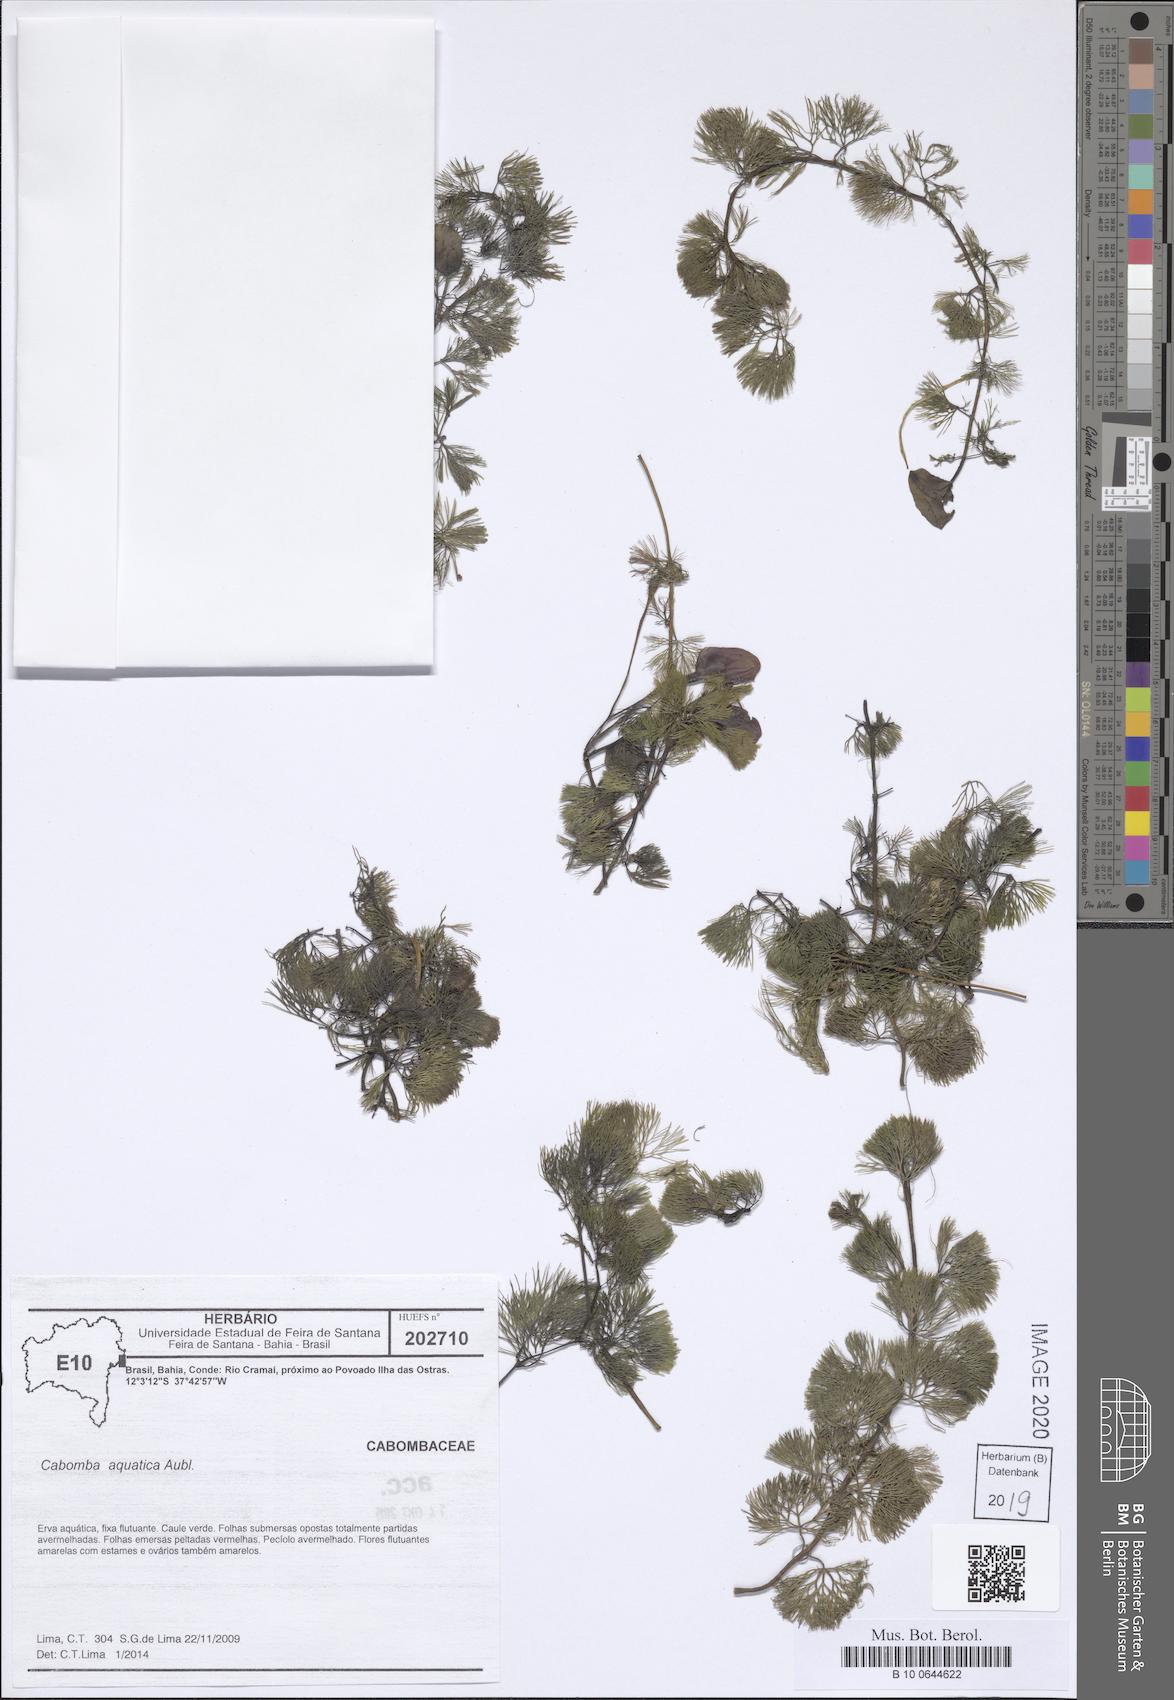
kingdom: Plantae
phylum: Tracheophyta
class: Magnoliopsida
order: Nymphaeales
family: Cabombaceae
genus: Cabomba
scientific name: Cabomba aquatica
